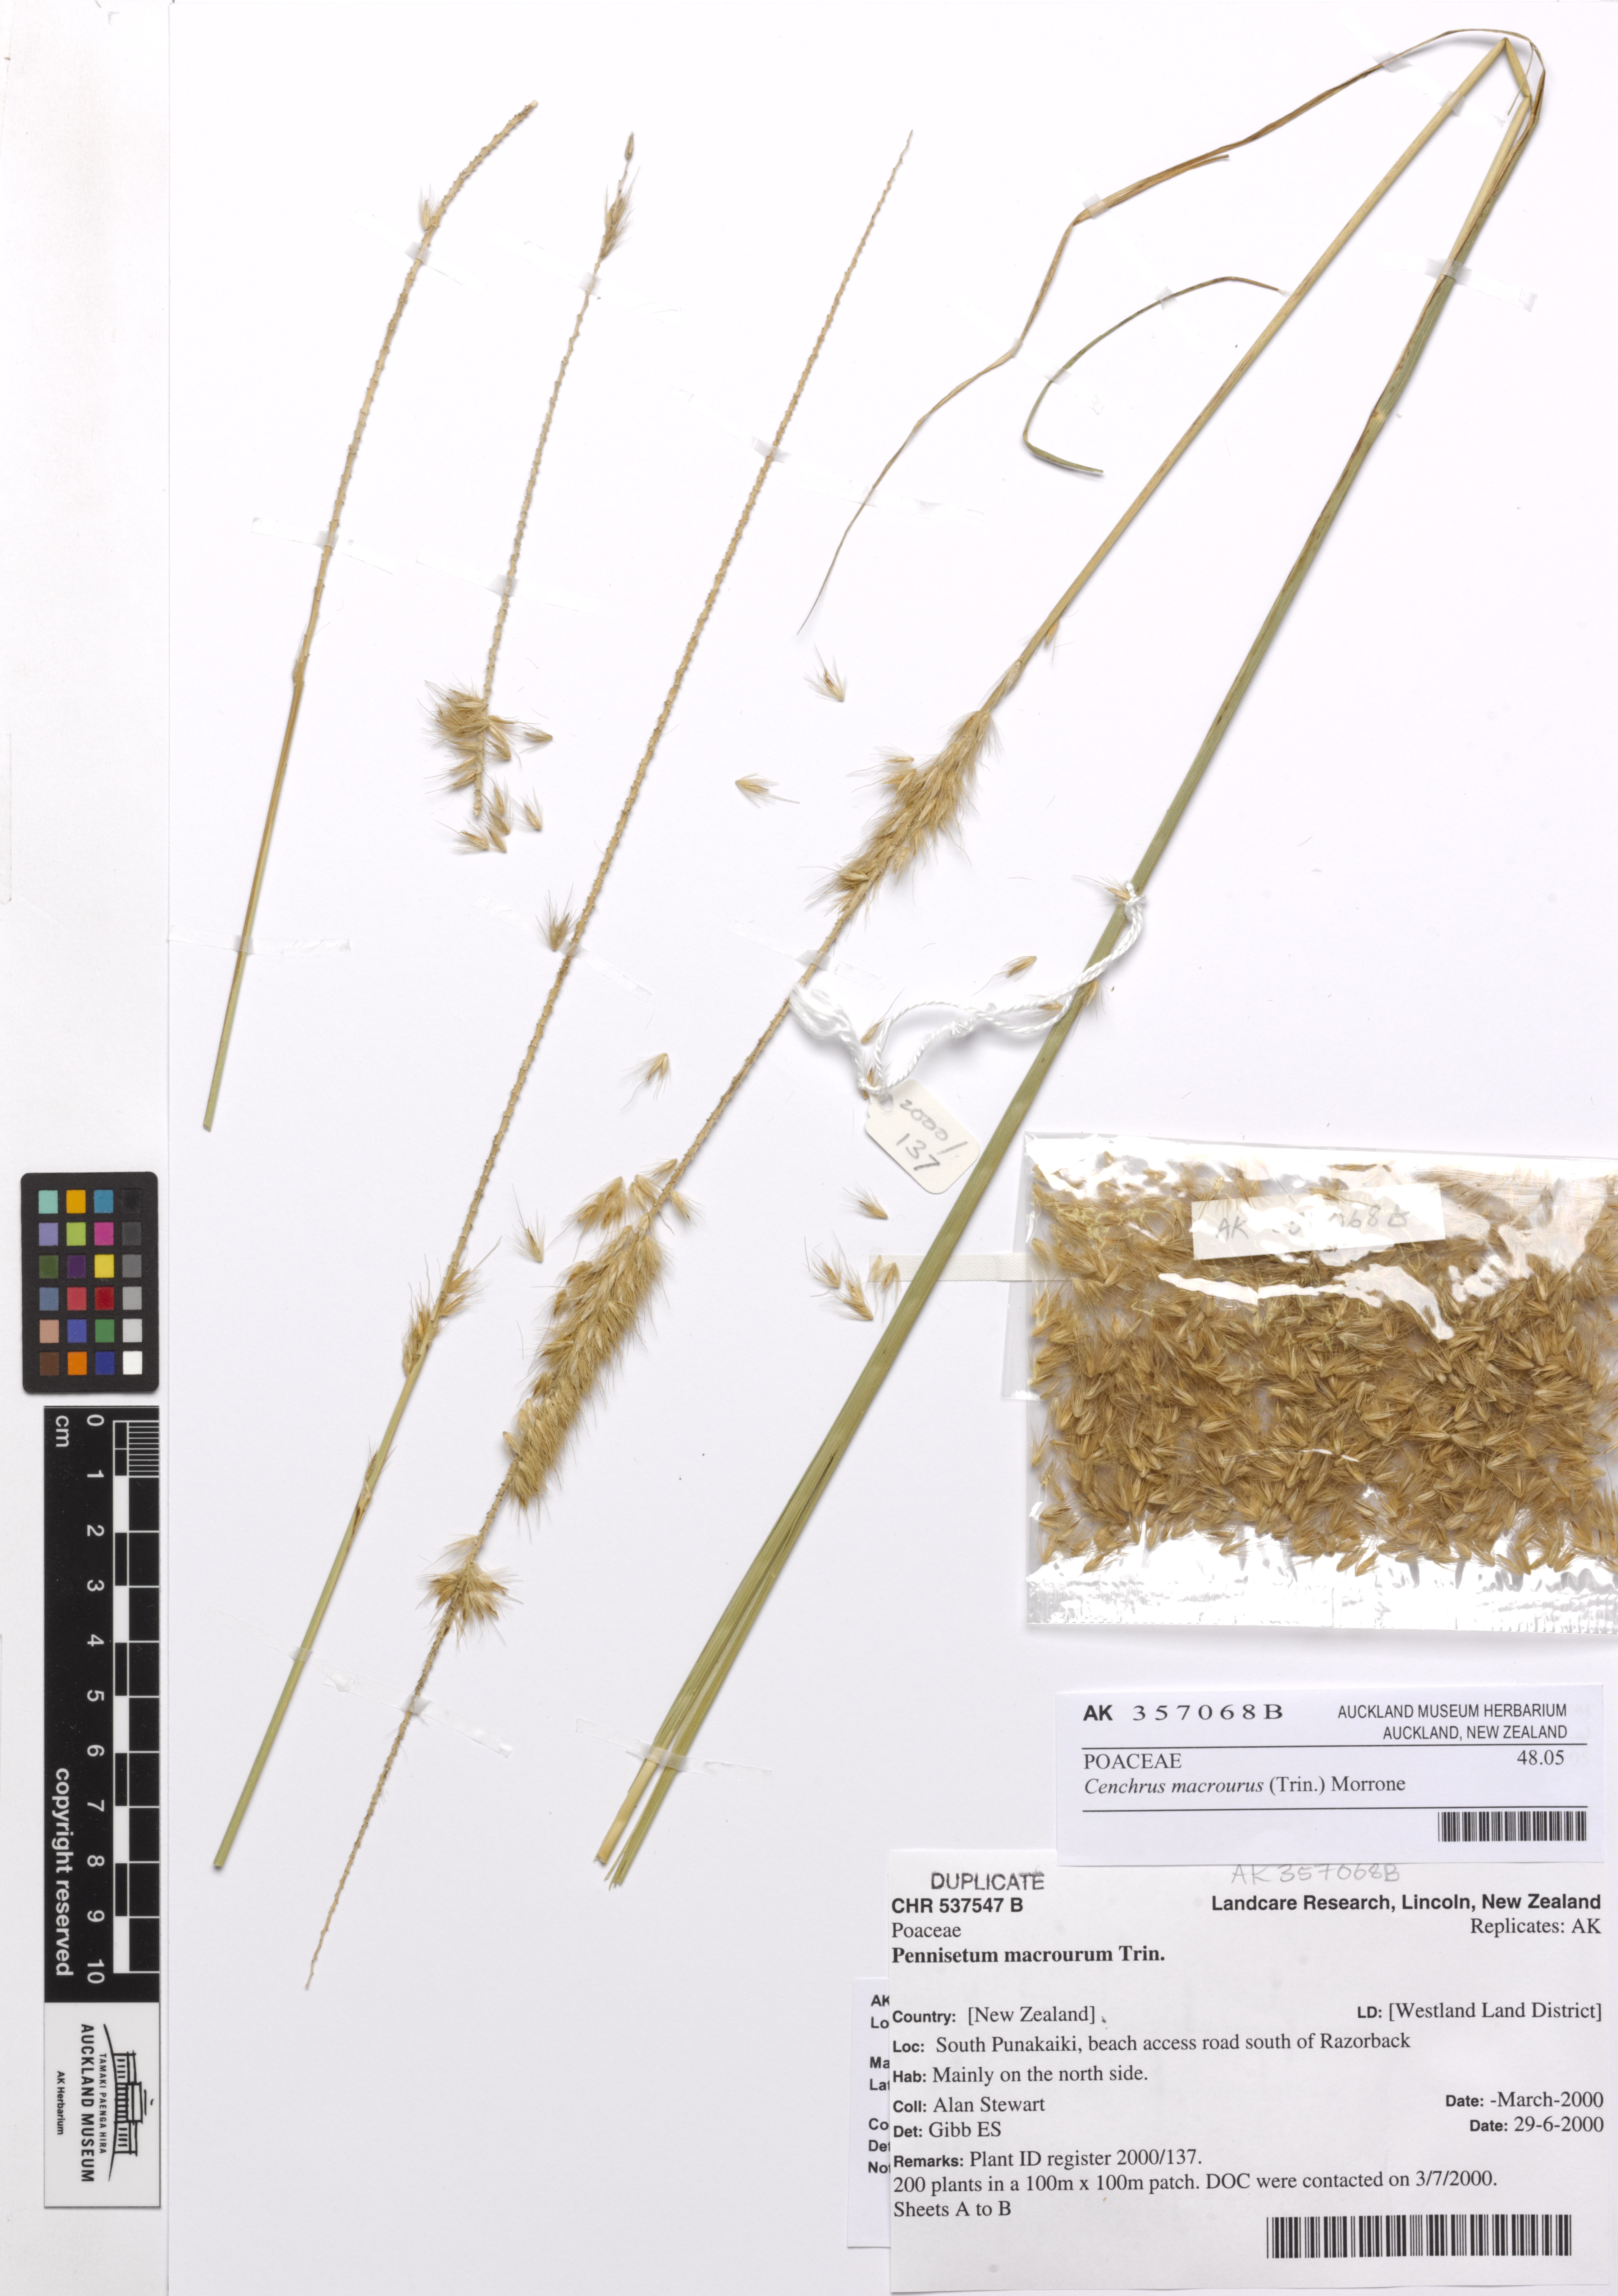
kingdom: Plantae
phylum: Tracheophyta
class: Liliopsida
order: Poales
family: Poaceae
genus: Cenchrus
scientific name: Cenchrus caudatus
